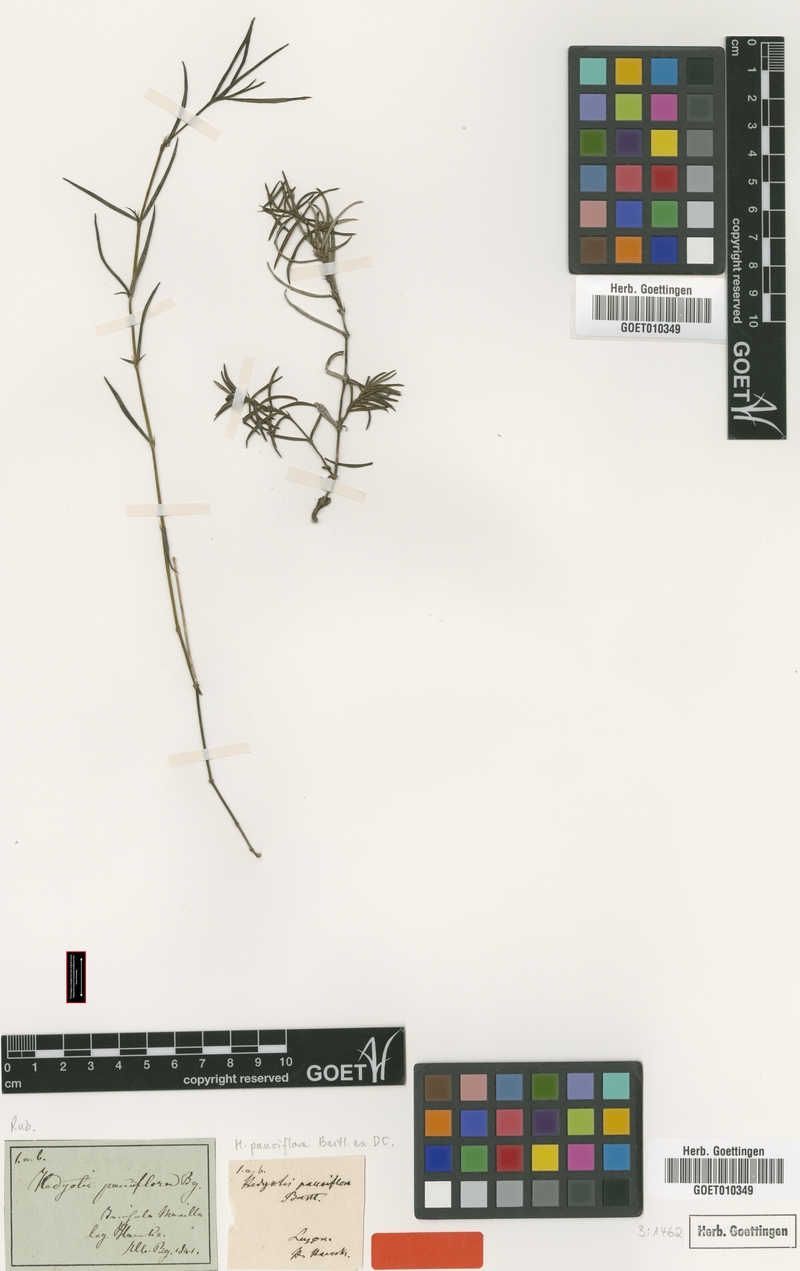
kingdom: Plantae
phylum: Tracheophyta
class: Magnoliopsida
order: Gentianales
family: Rubiaceae
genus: Scleromitrion
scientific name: Scleromitrion pauciflorum
